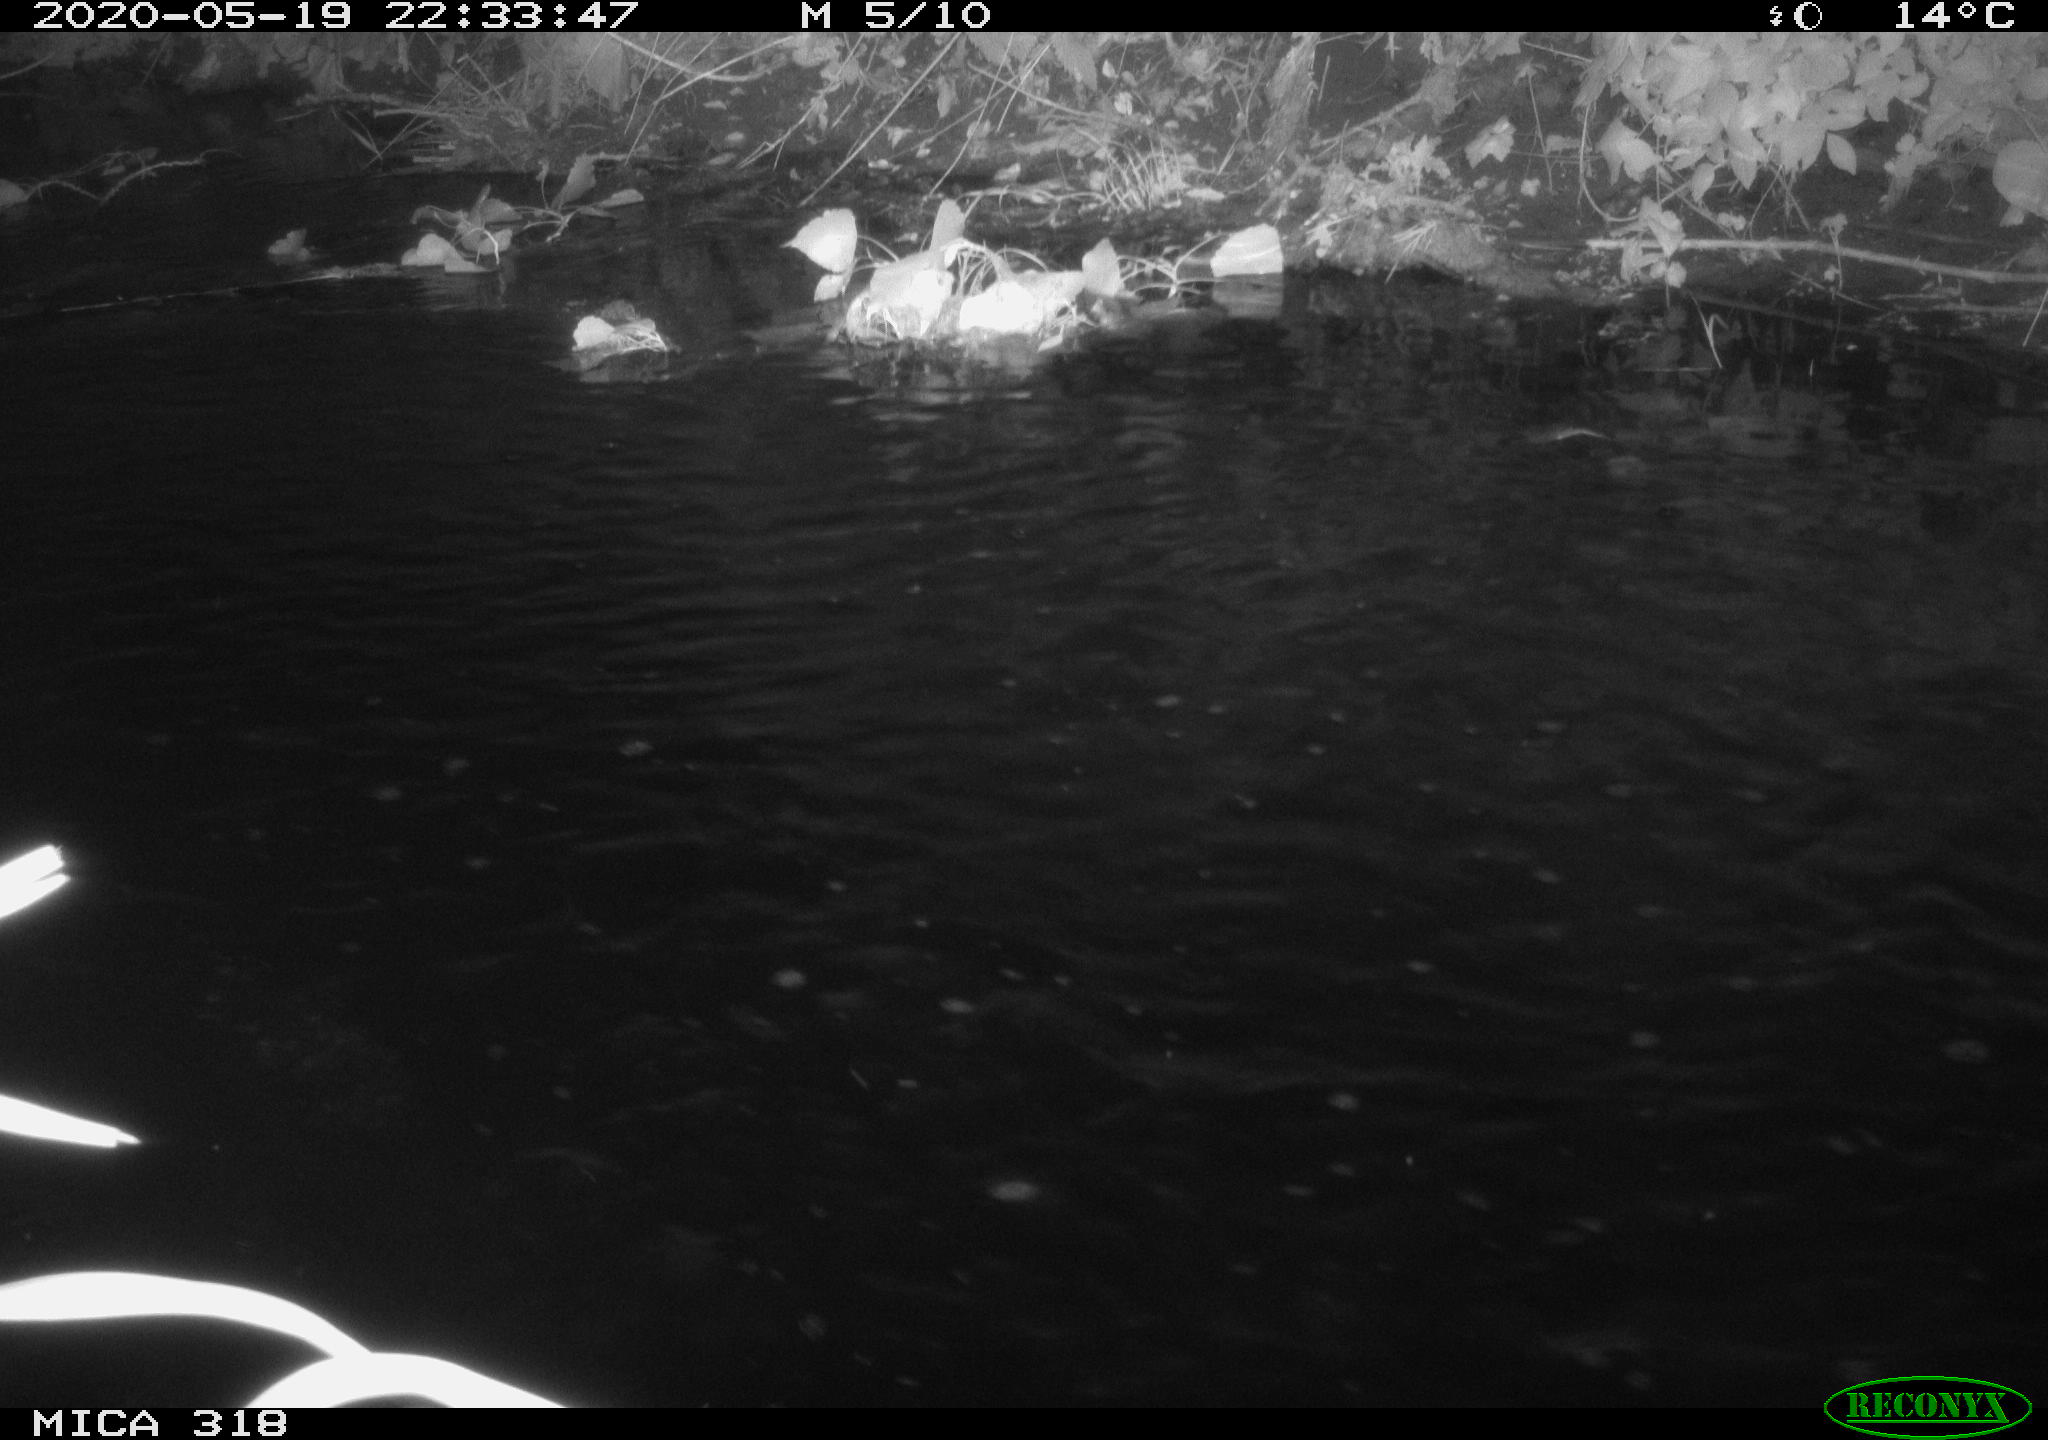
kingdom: Animalia
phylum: Chordata
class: Aves
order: Pelecaniformes
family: Ardeidae
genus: Ardea
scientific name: Ardea cinerea
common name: Grey heron
